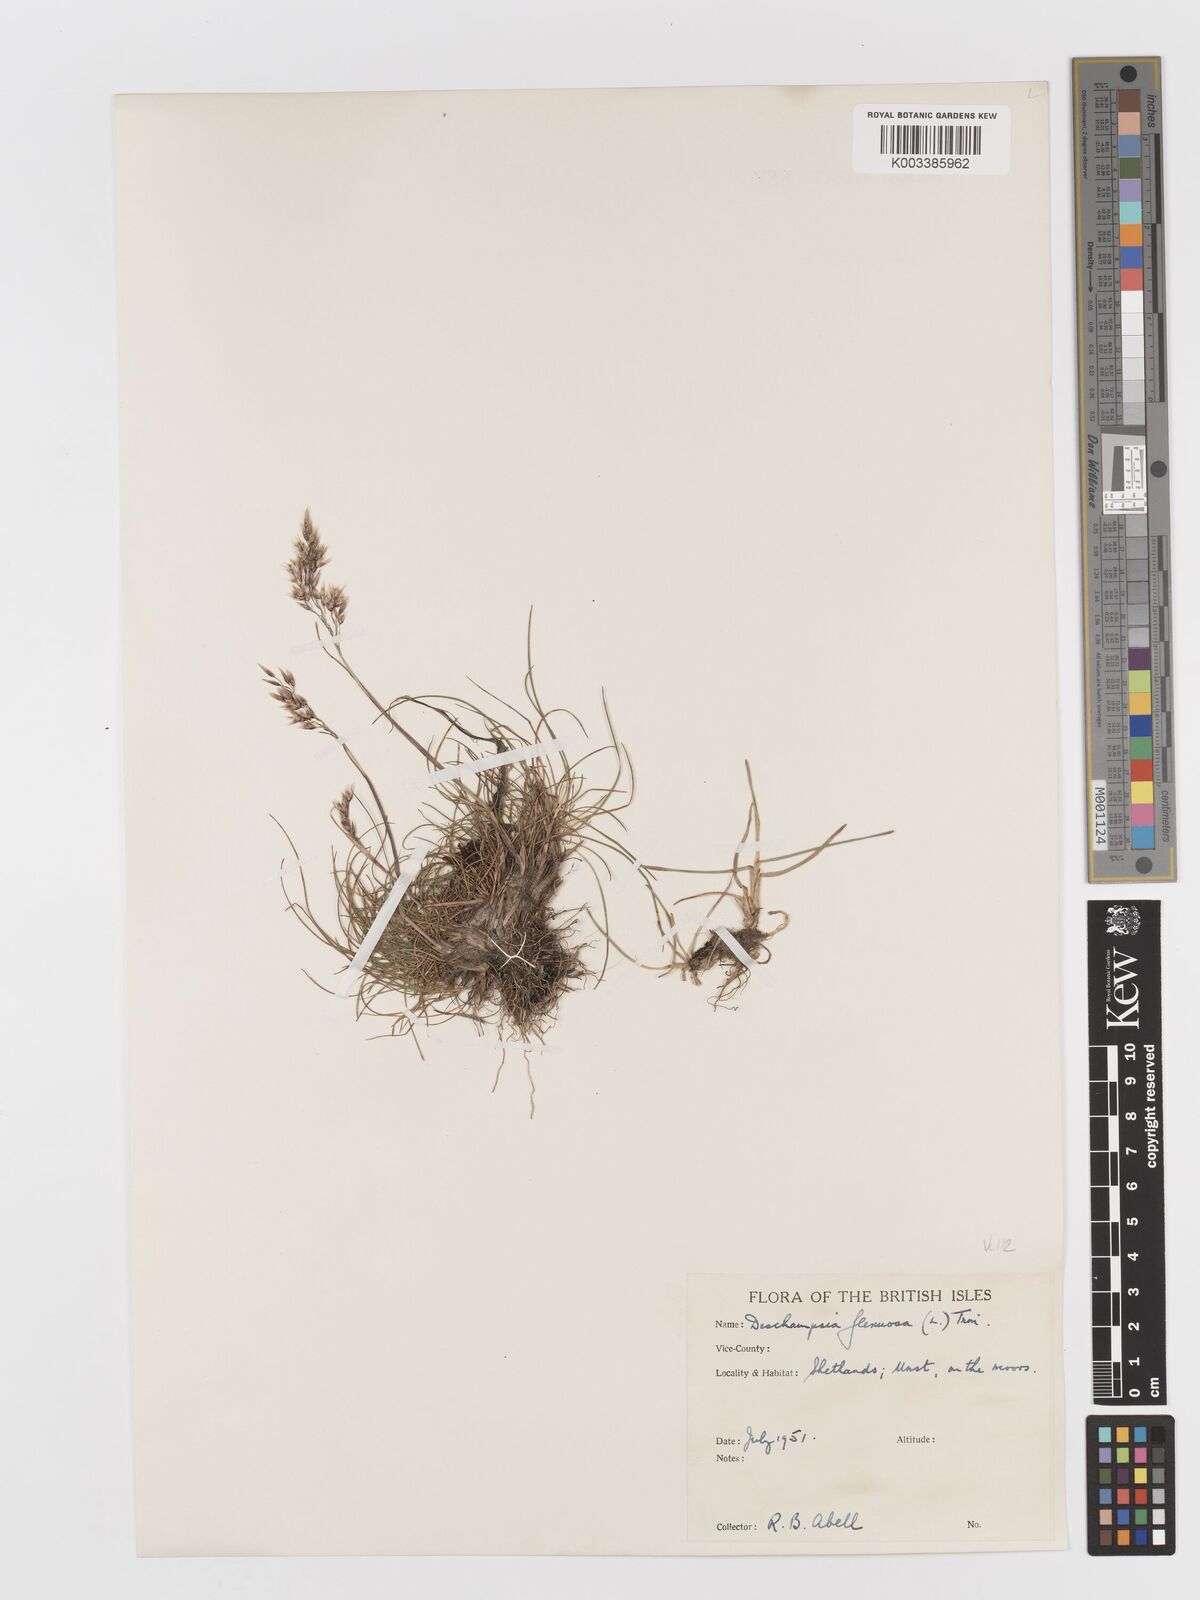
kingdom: Plantae
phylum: Tracheophyta
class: Liliopsida
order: Poales
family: Poaceae
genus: Avenella
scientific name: Avenella flexuosa
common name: Wavy hairgrass
